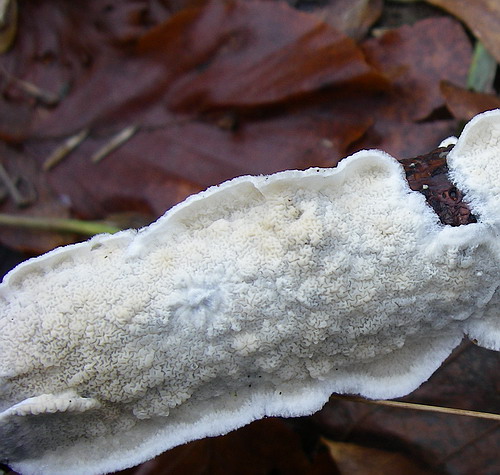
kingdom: Fungi
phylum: Basidiomycota
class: Agaricomycetes
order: Polyporales
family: Irpicaceae
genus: Byssomerulius
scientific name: Byssomerulius corium
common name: læder-åresvamp
